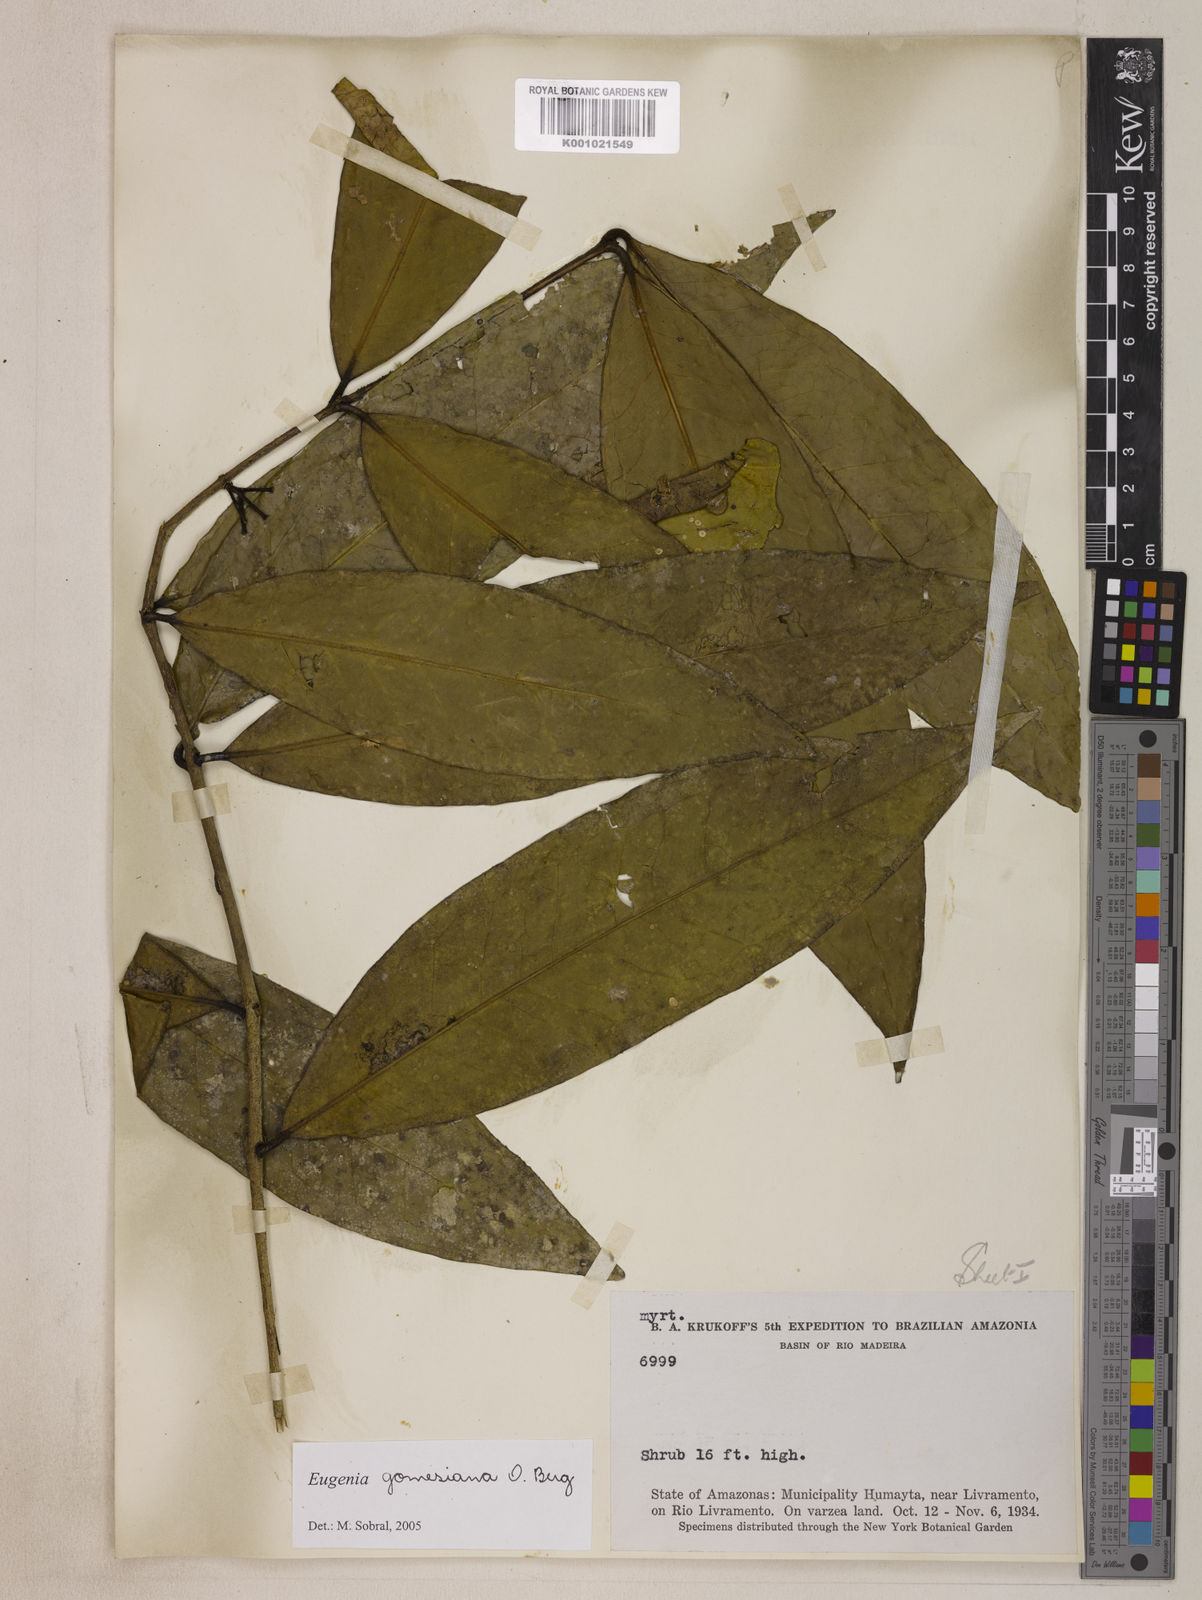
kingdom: Plantae
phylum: Tracheophyta
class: Magnoliopsida
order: Myrtales
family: Myrtaceae
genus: Eugenia
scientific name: Eugenia gomesiana
